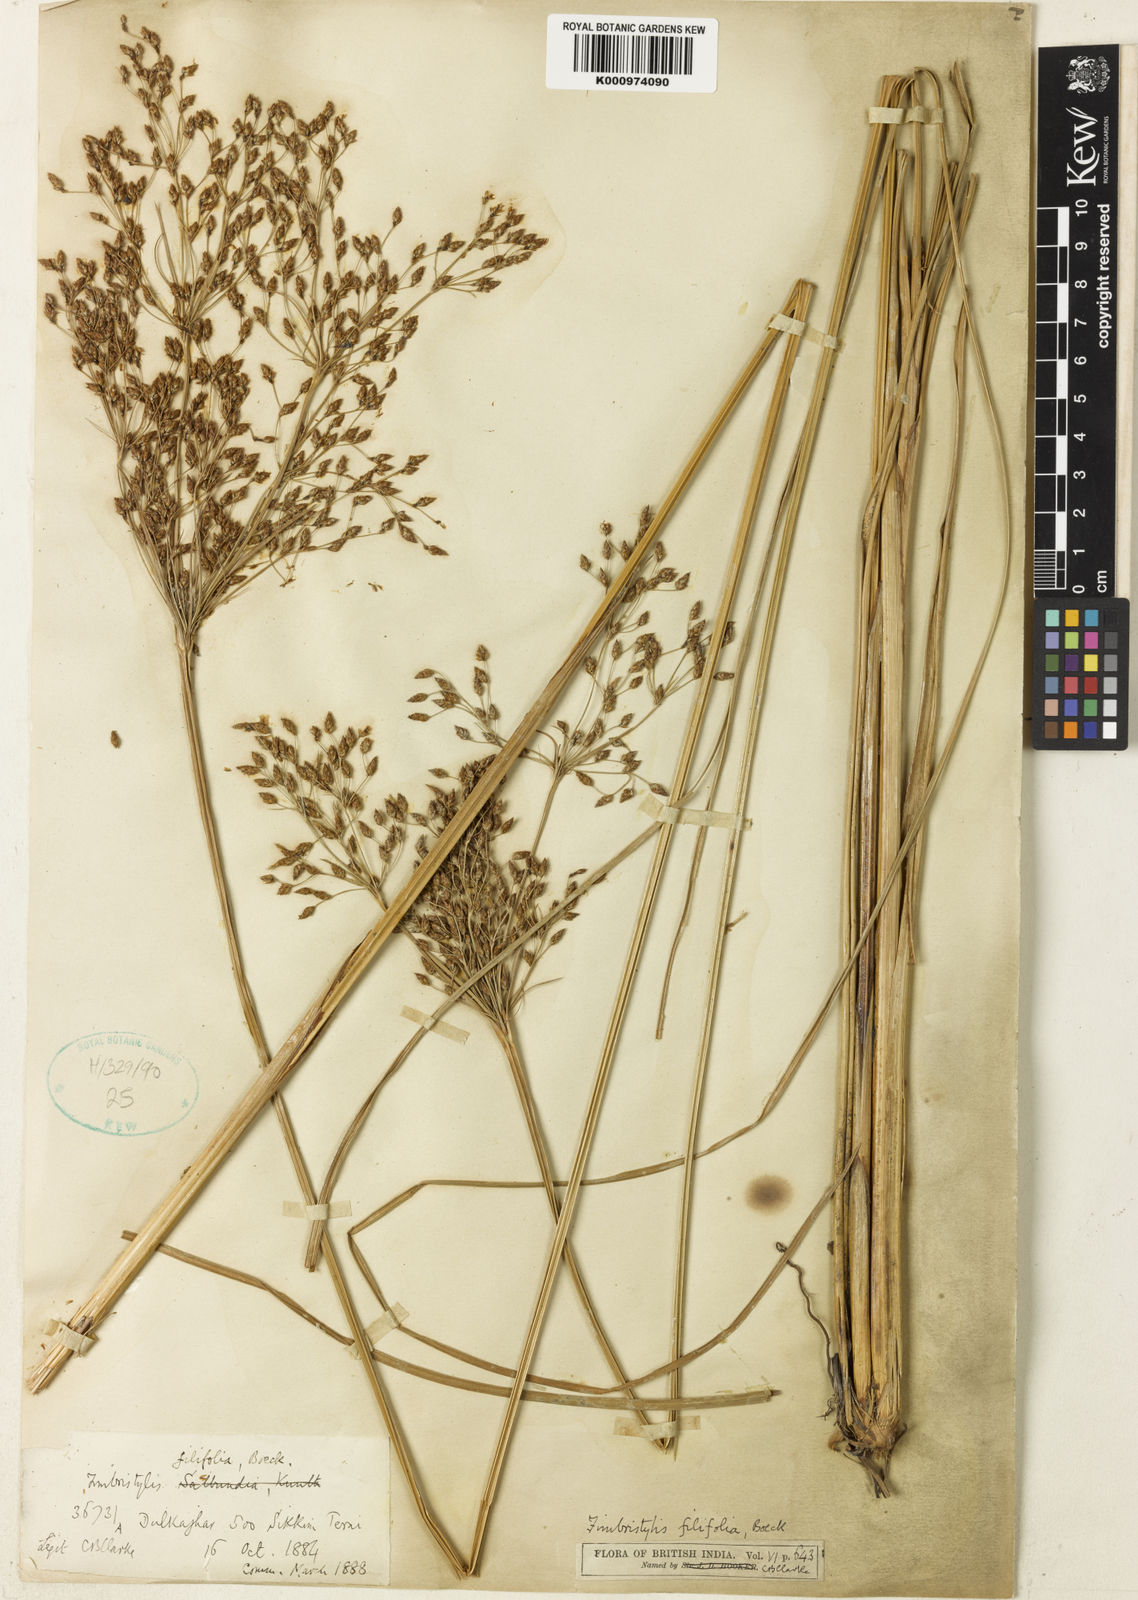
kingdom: Plantae
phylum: Tracheophyta
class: Liliopsida
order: Poales
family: Cyperaceae
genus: Fimbristylis
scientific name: Fimbristylis filifolia
